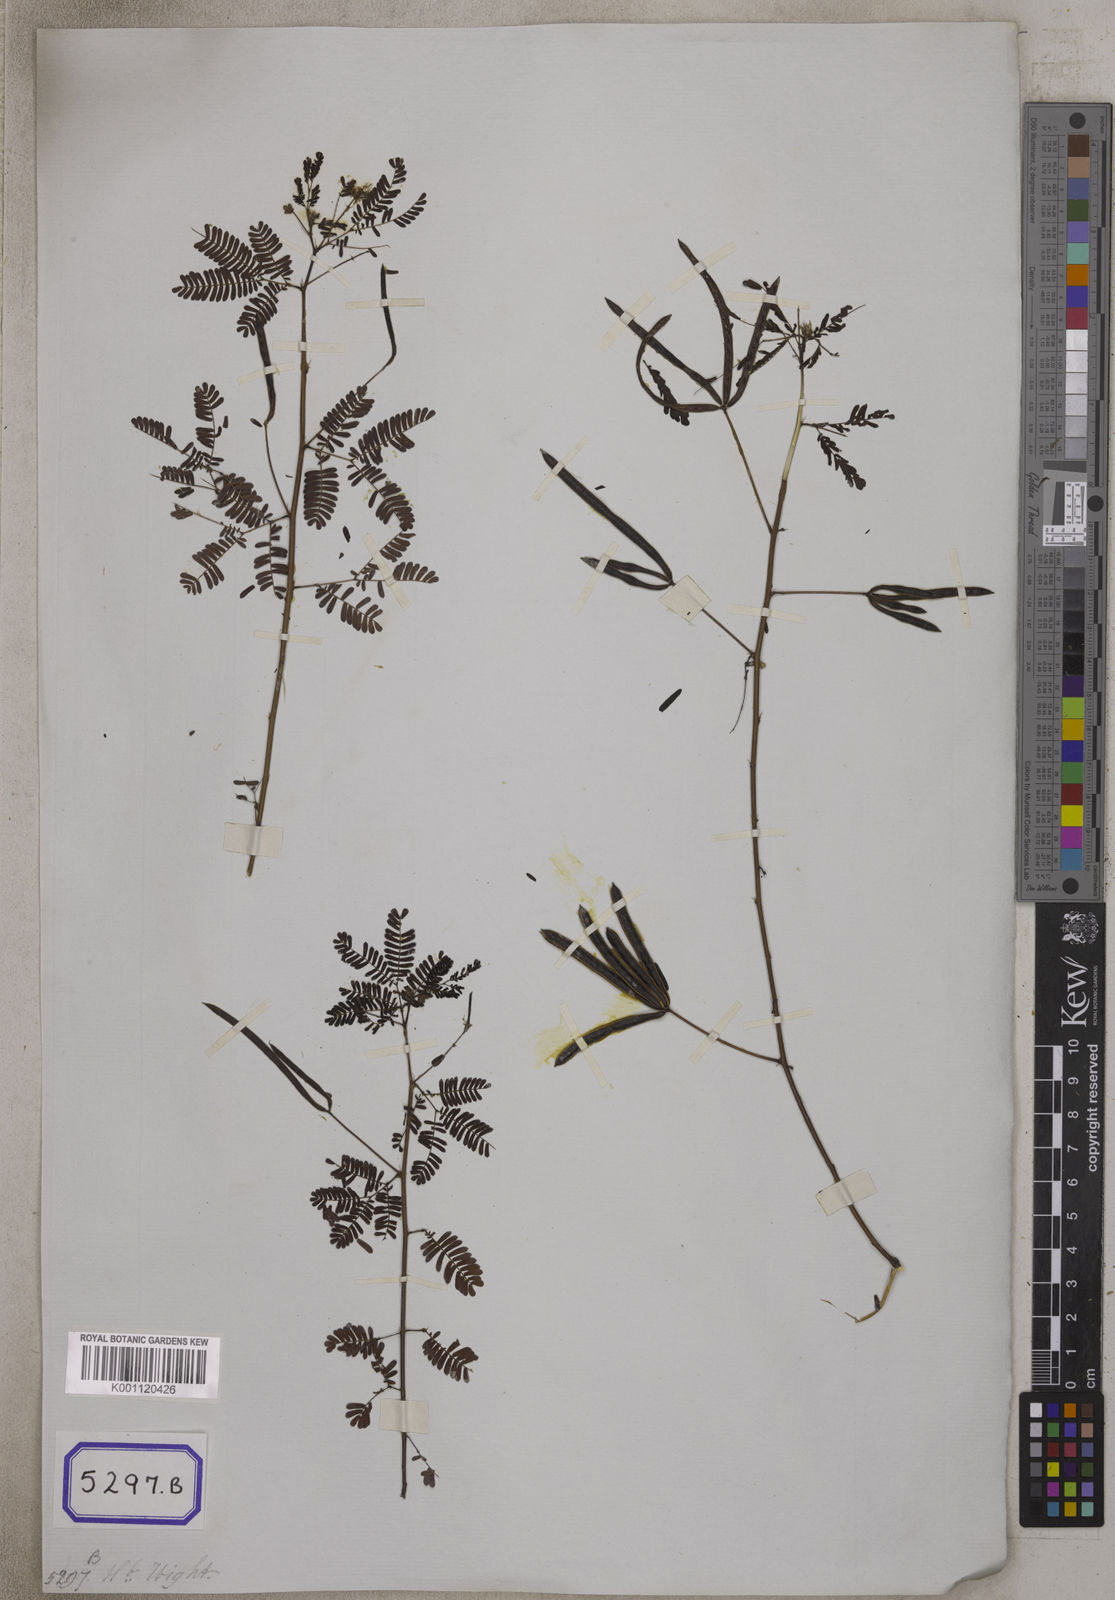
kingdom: Plantae
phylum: Tracheophyta
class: Magnoliopsida
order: Fabales
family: Fabaceae
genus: Desmanthus
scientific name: Desmanthus virgatus
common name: Wild tantan
